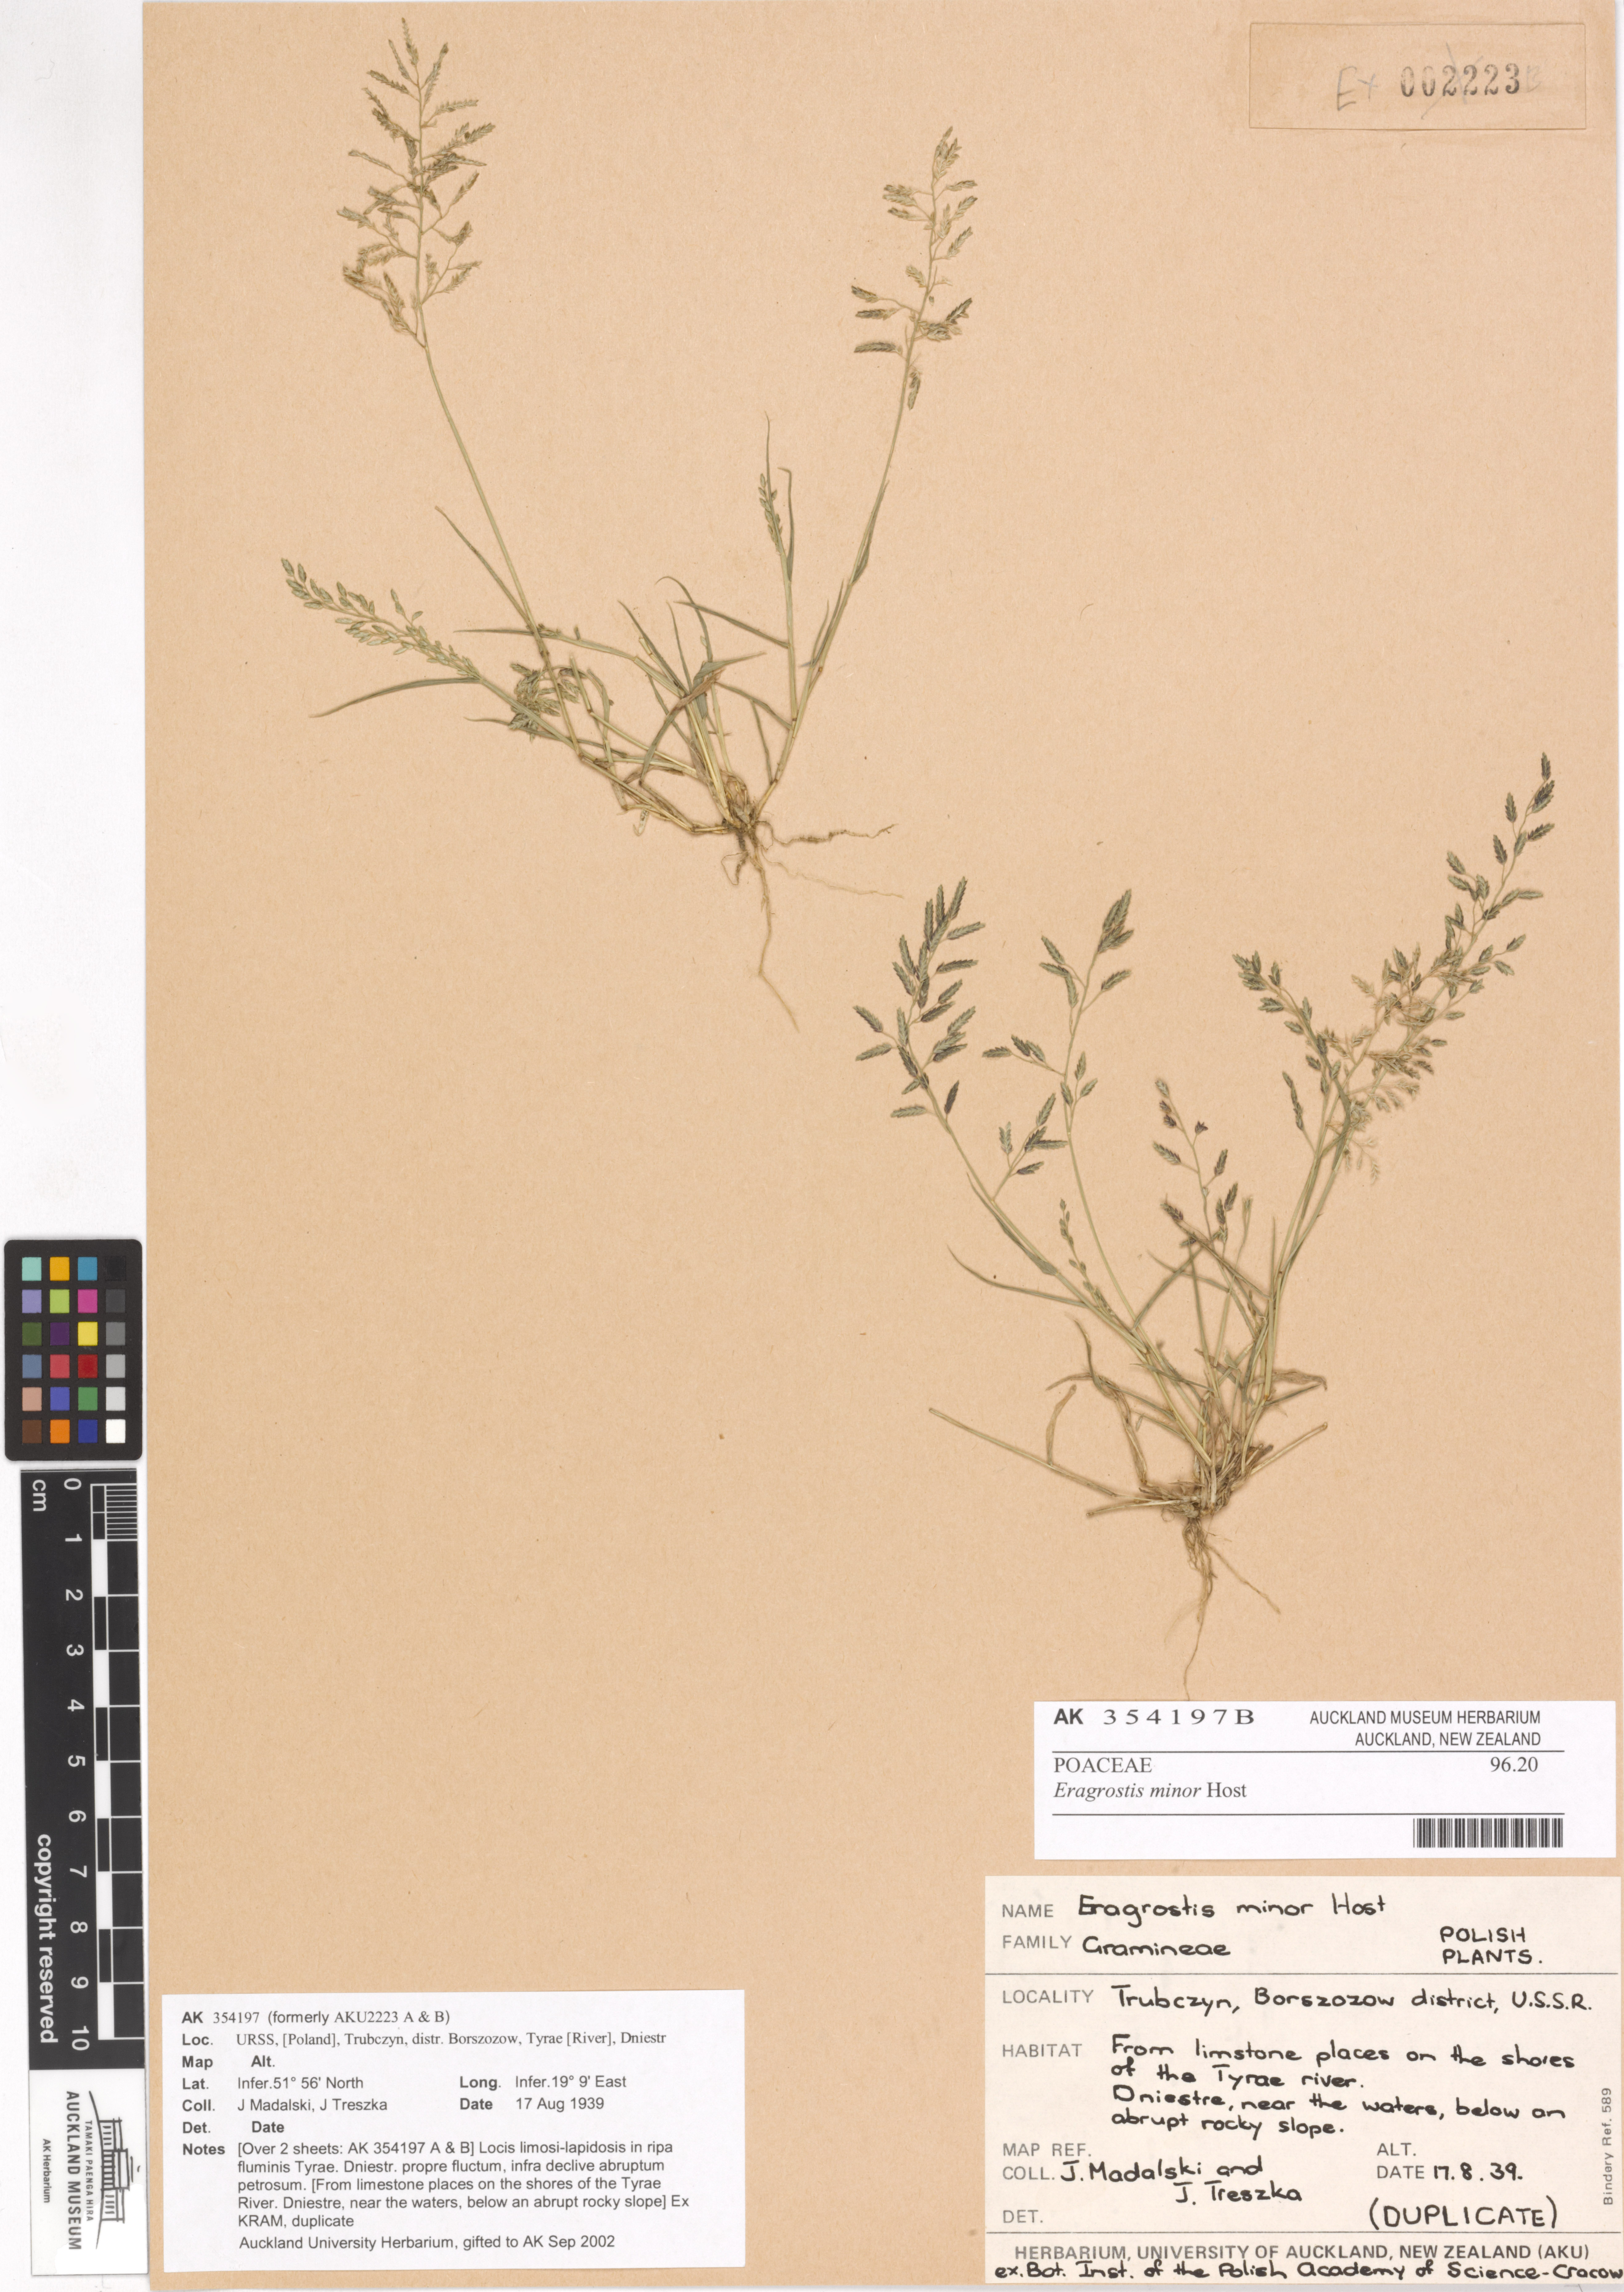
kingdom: Plantae
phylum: Tracheophyta
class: Liliopsida
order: Poales
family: Poaceae
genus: Eragrostis
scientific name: Eragrostis minor
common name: Small love-grass
